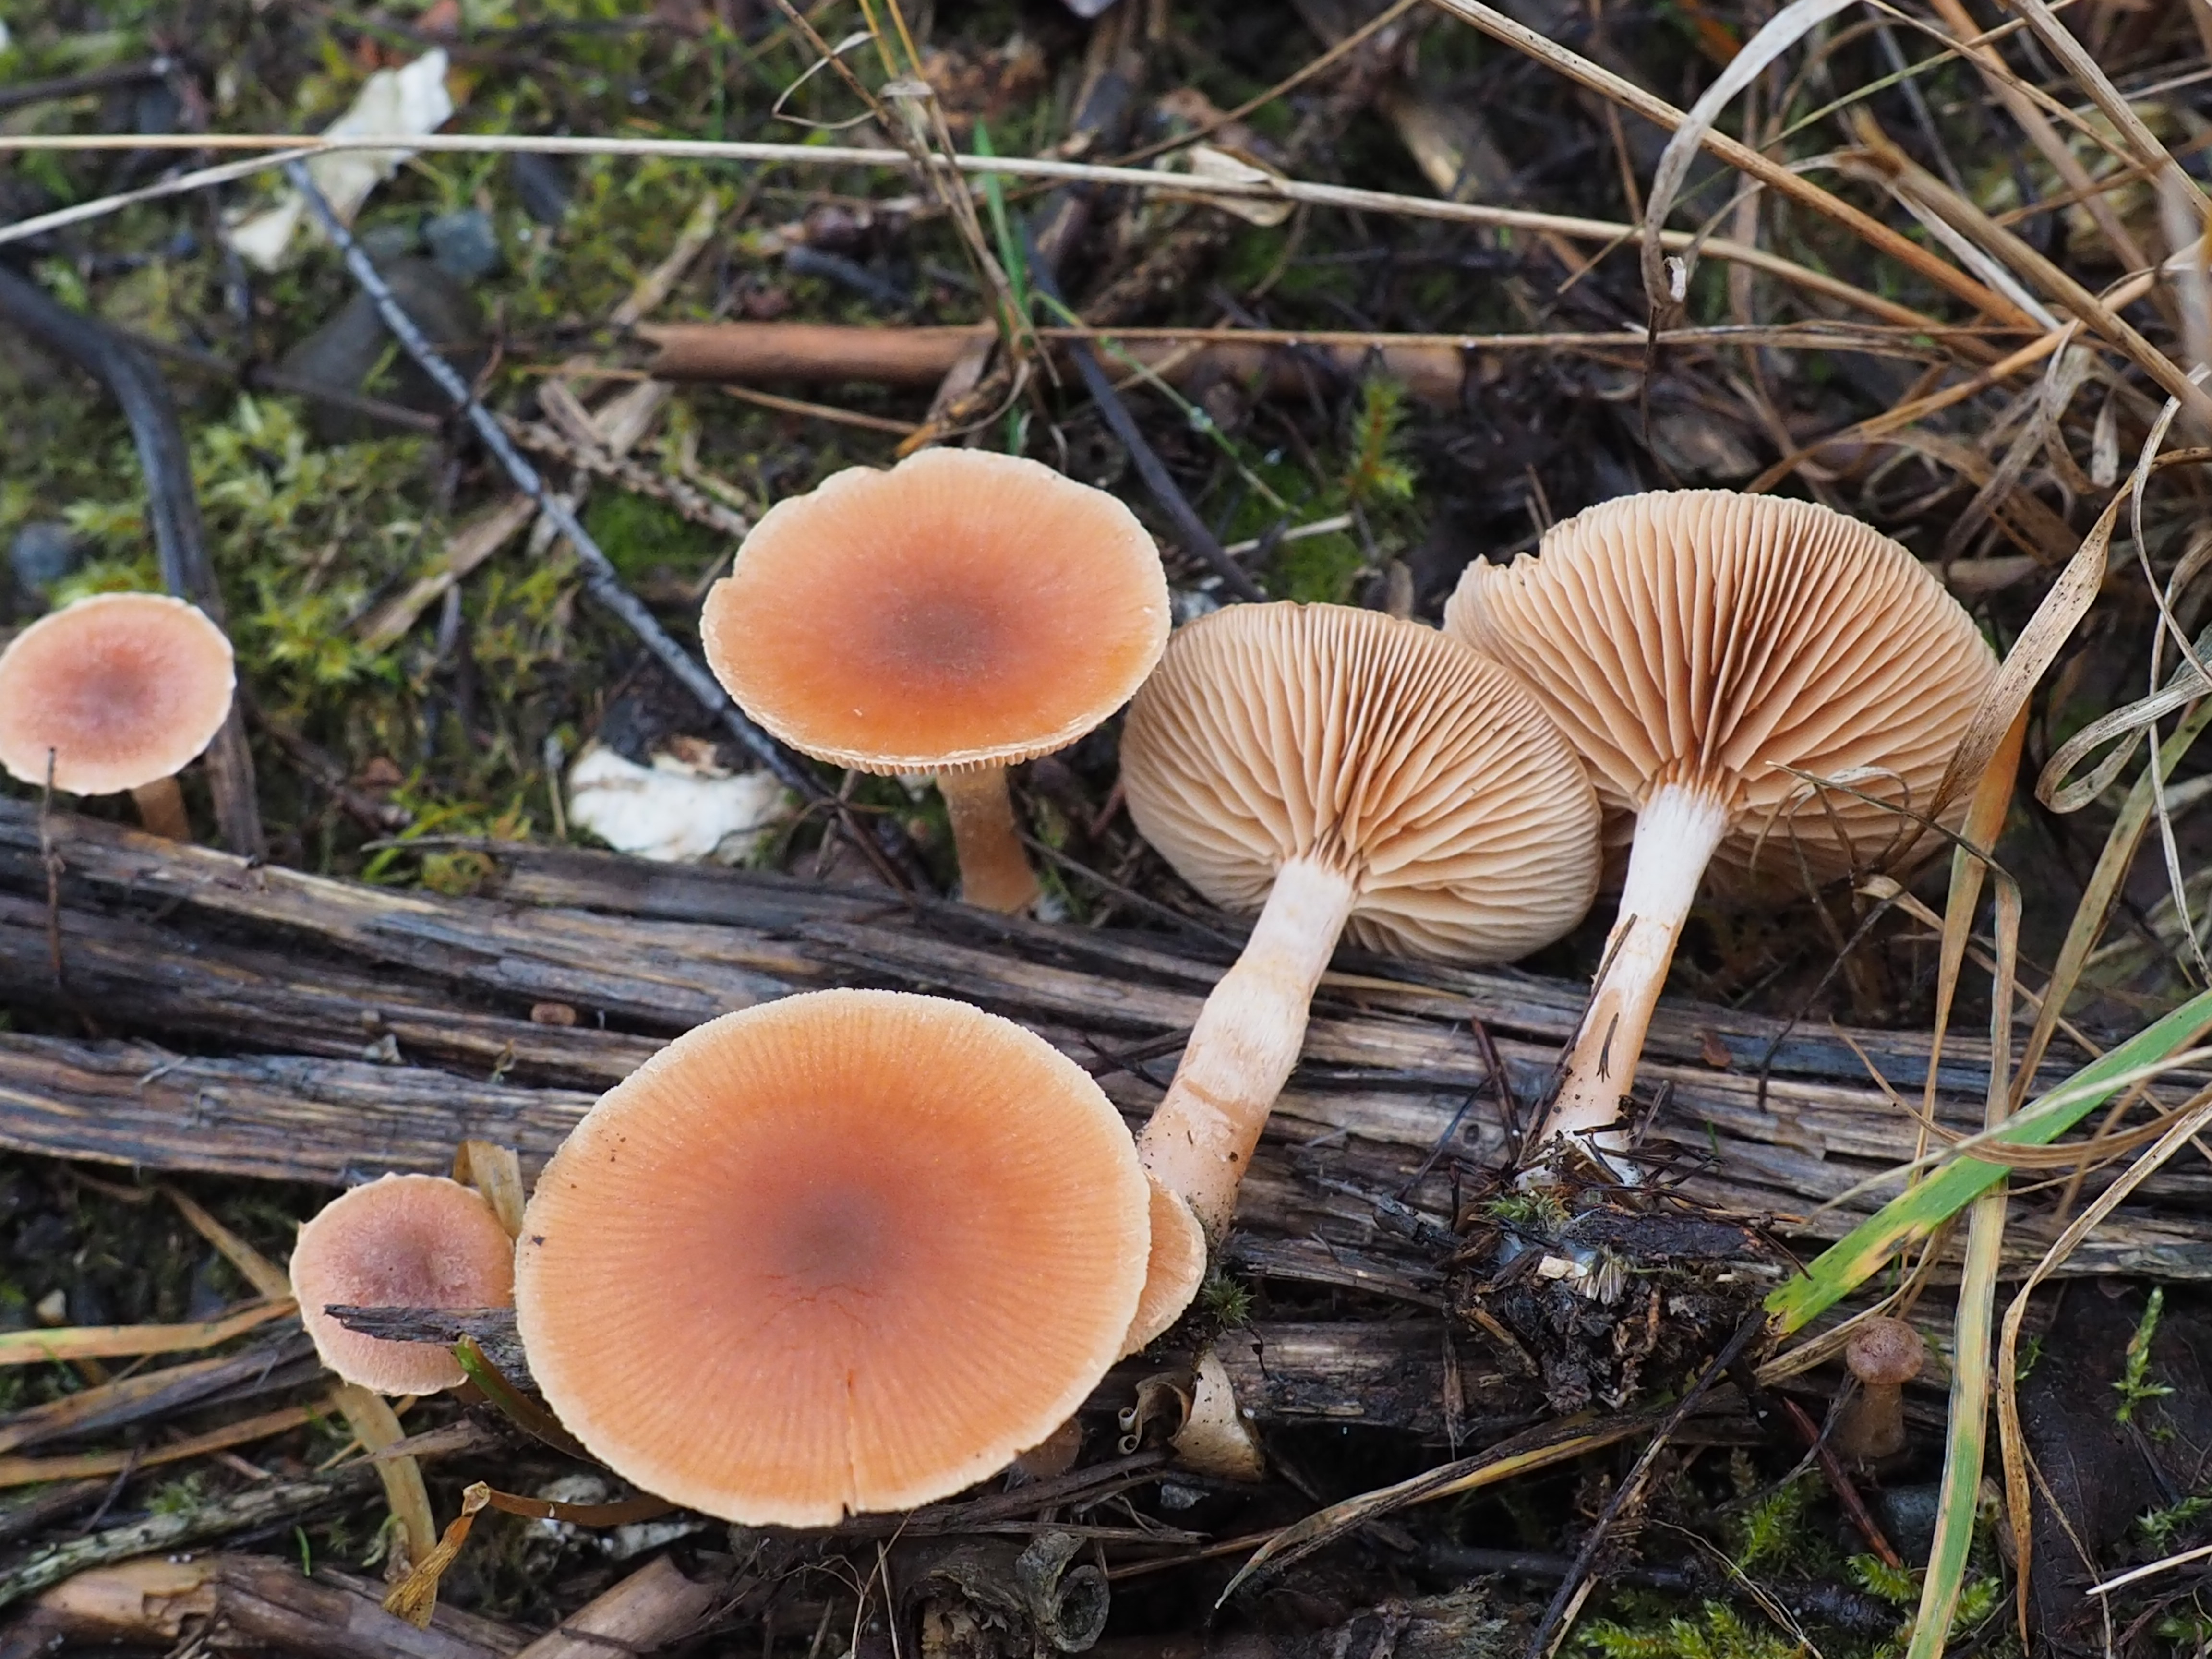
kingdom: Fungi
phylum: Basidiomycota
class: Agaricomycetes
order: Agaricales
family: Tubariaceae
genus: Tubaria
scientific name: Tubaria furfuracea
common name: Scurfy twiglet
